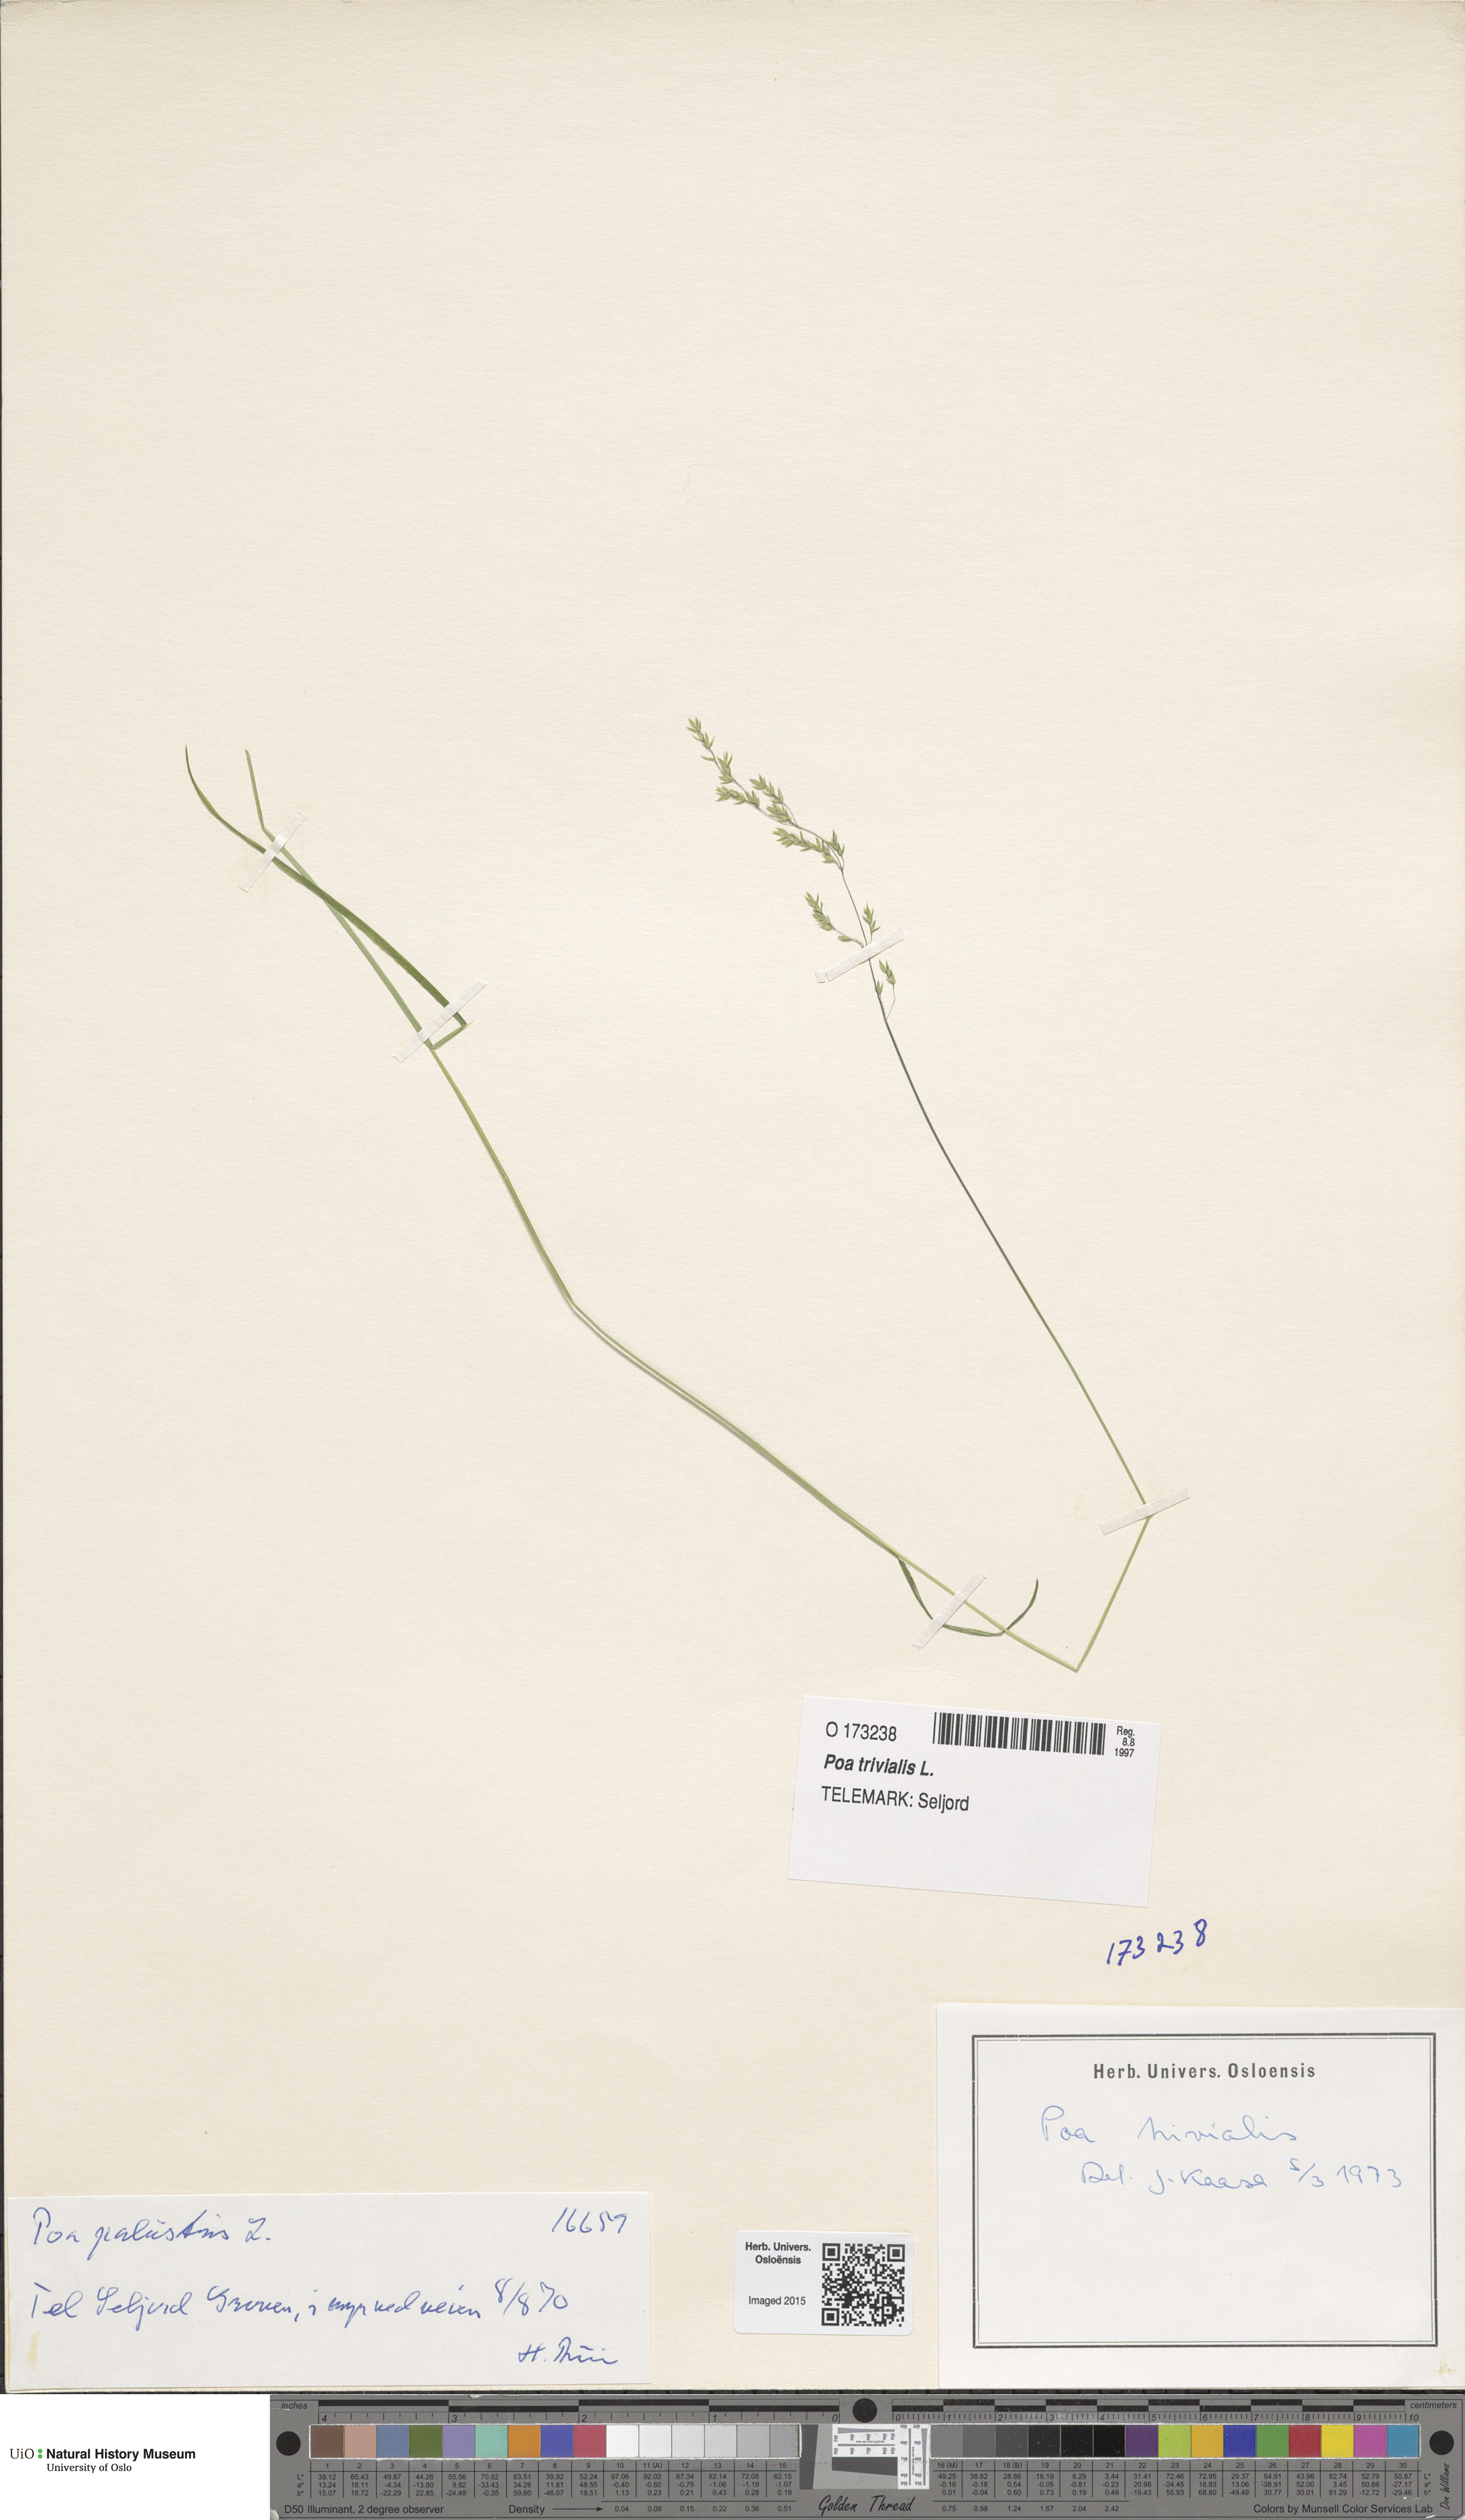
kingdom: Plantae
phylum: Tracheophyta
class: Liliopsida
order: Poales
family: Poaceae
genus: Poa
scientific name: Poa trivialis
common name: Rough bluegrass
